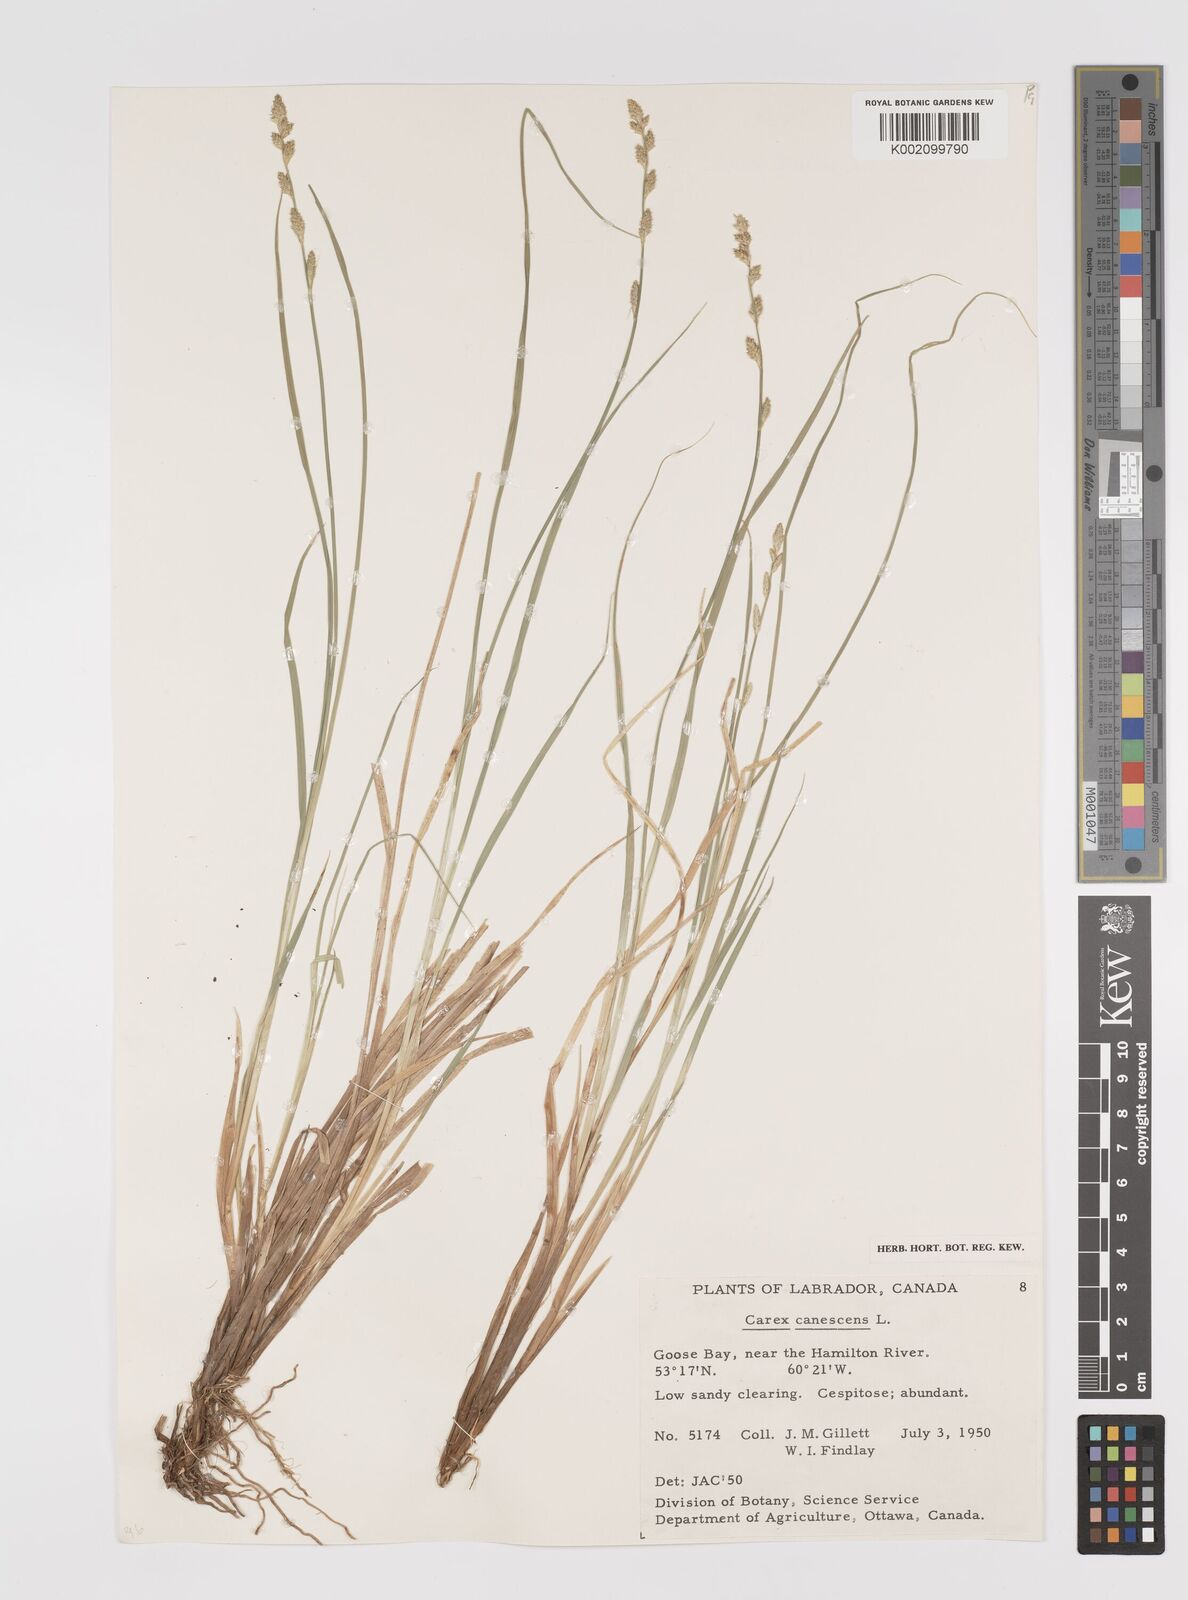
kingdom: Plantae
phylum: Tracheophyta
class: Liliopsida
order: Poales
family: Cyperaceae
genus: Carex
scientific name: Carex curta
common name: White sedge
